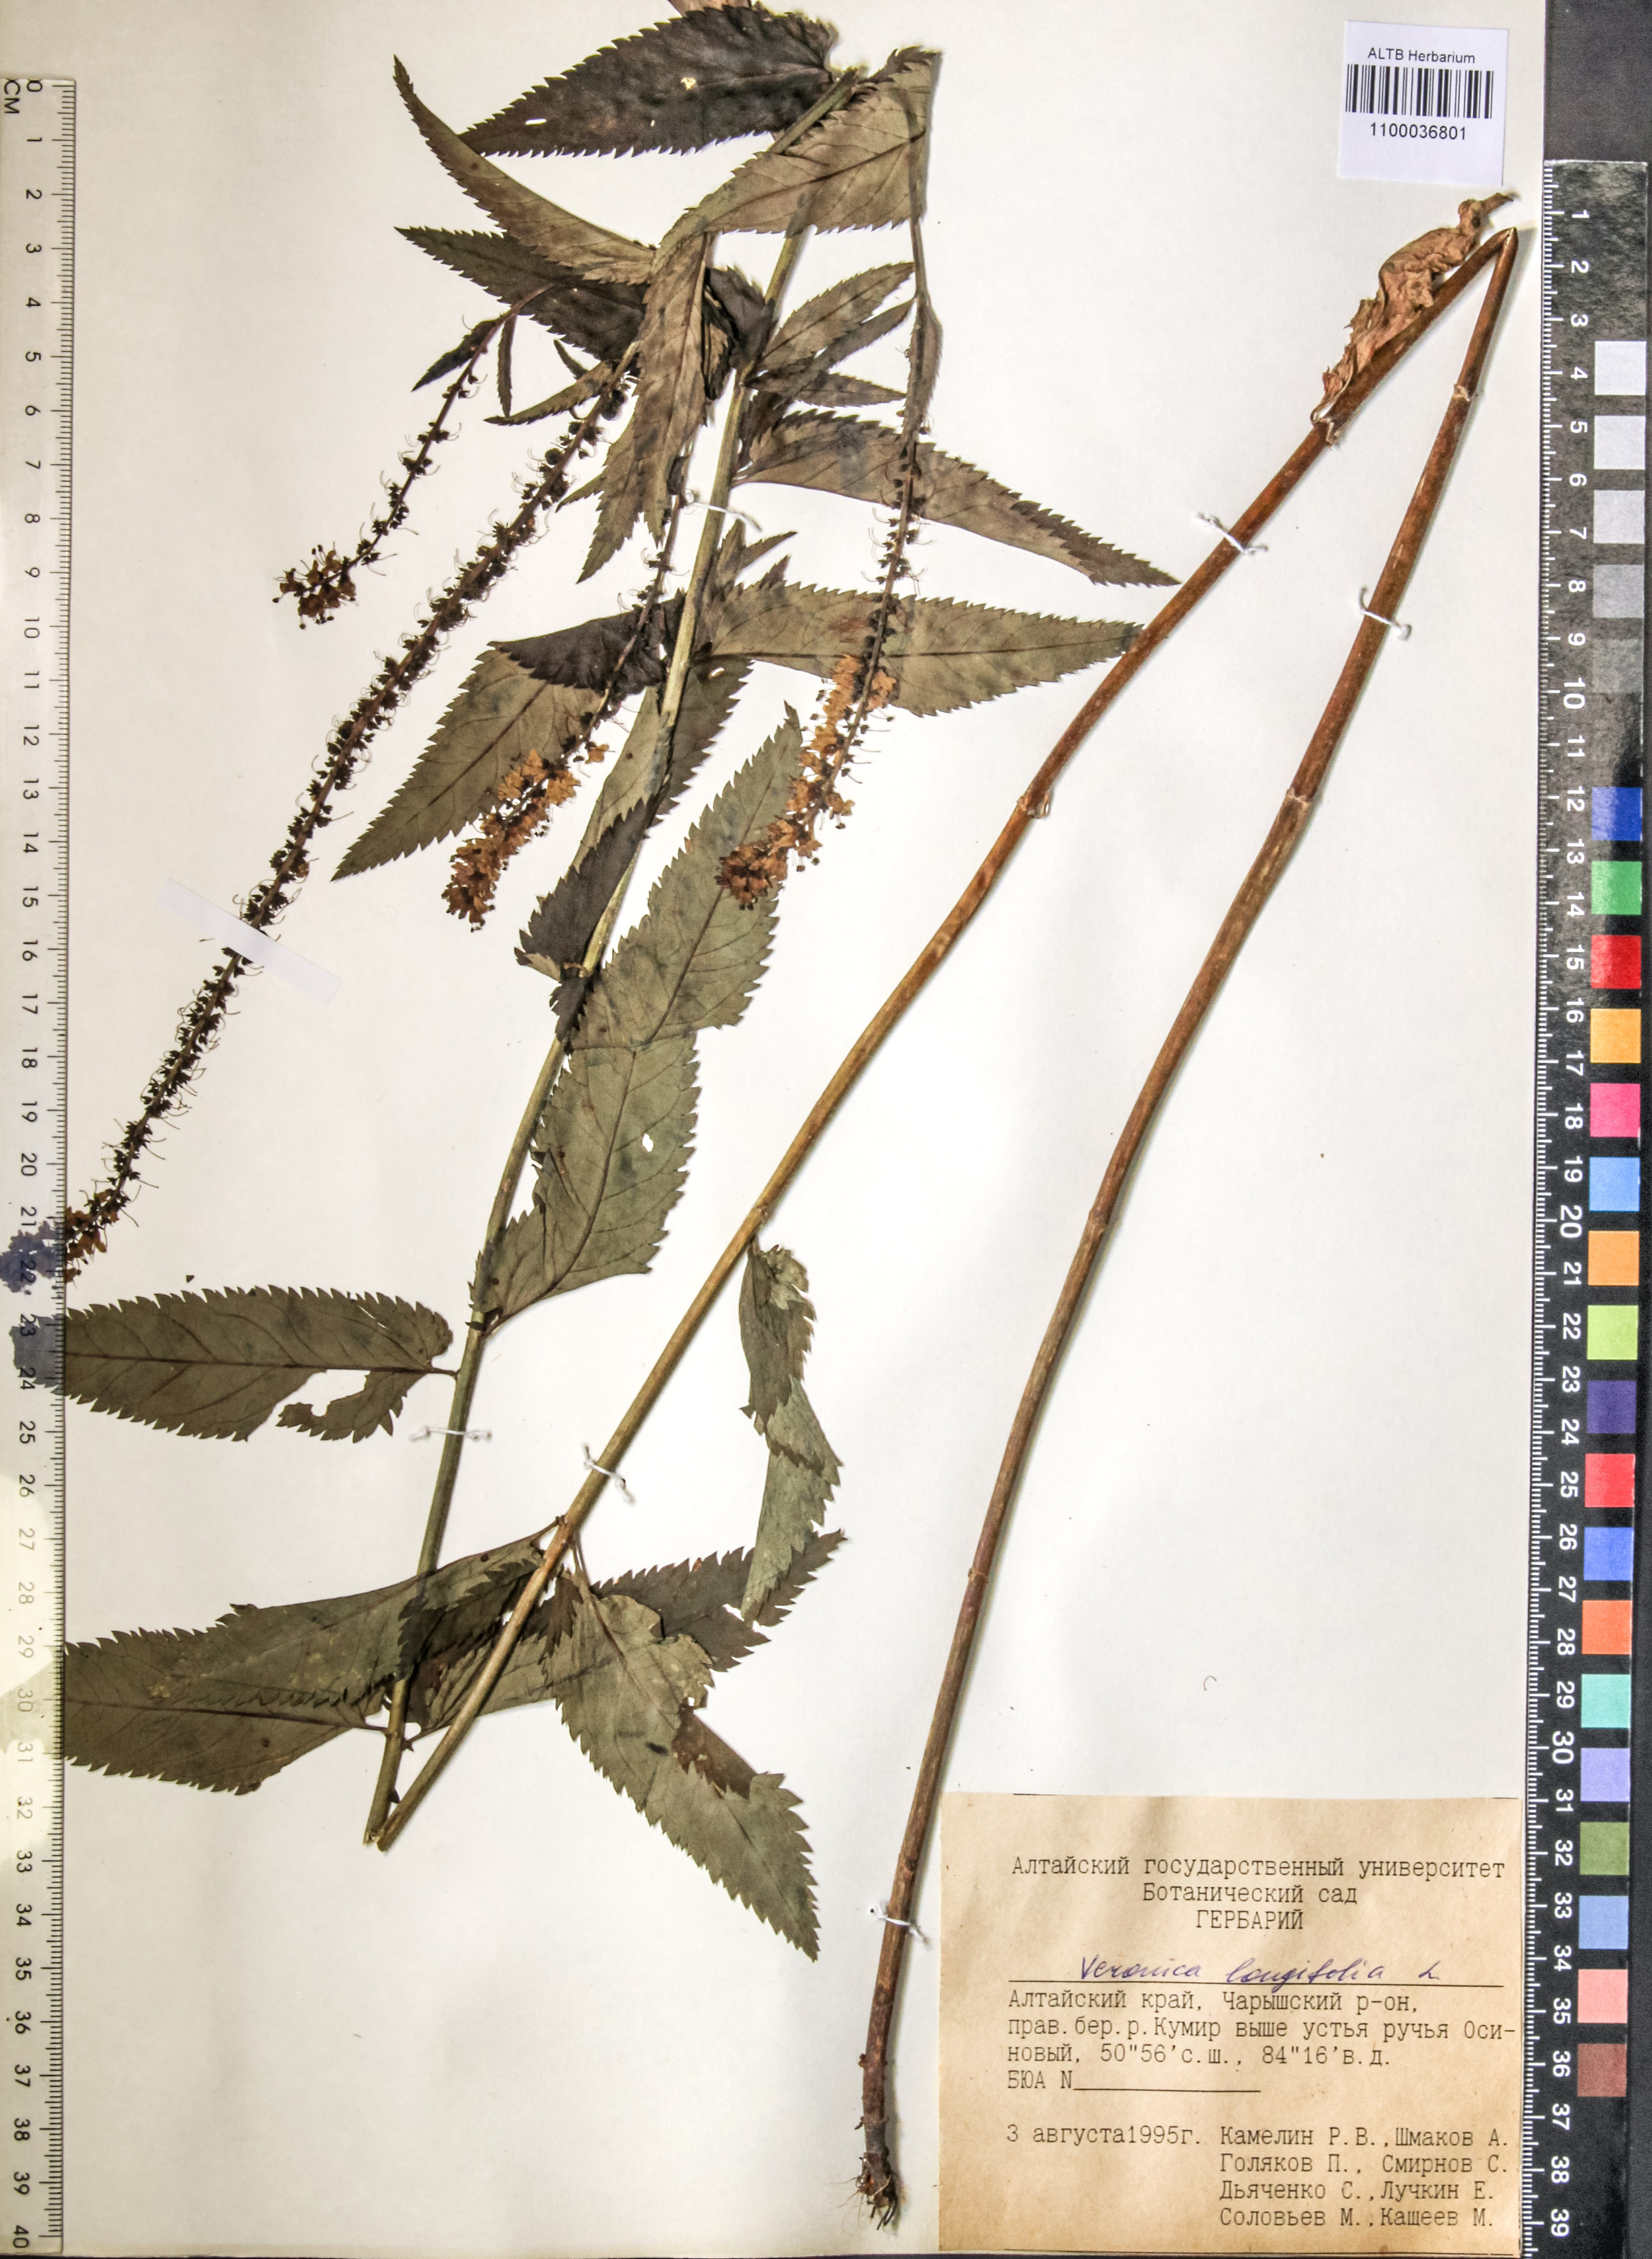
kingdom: Plantae
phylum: Tracheophyta
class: Magnoliopsida
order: Lamiales
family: Plantaginaceae
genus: Veronica
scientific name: Veronica longifolia
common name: Garden speedwell
